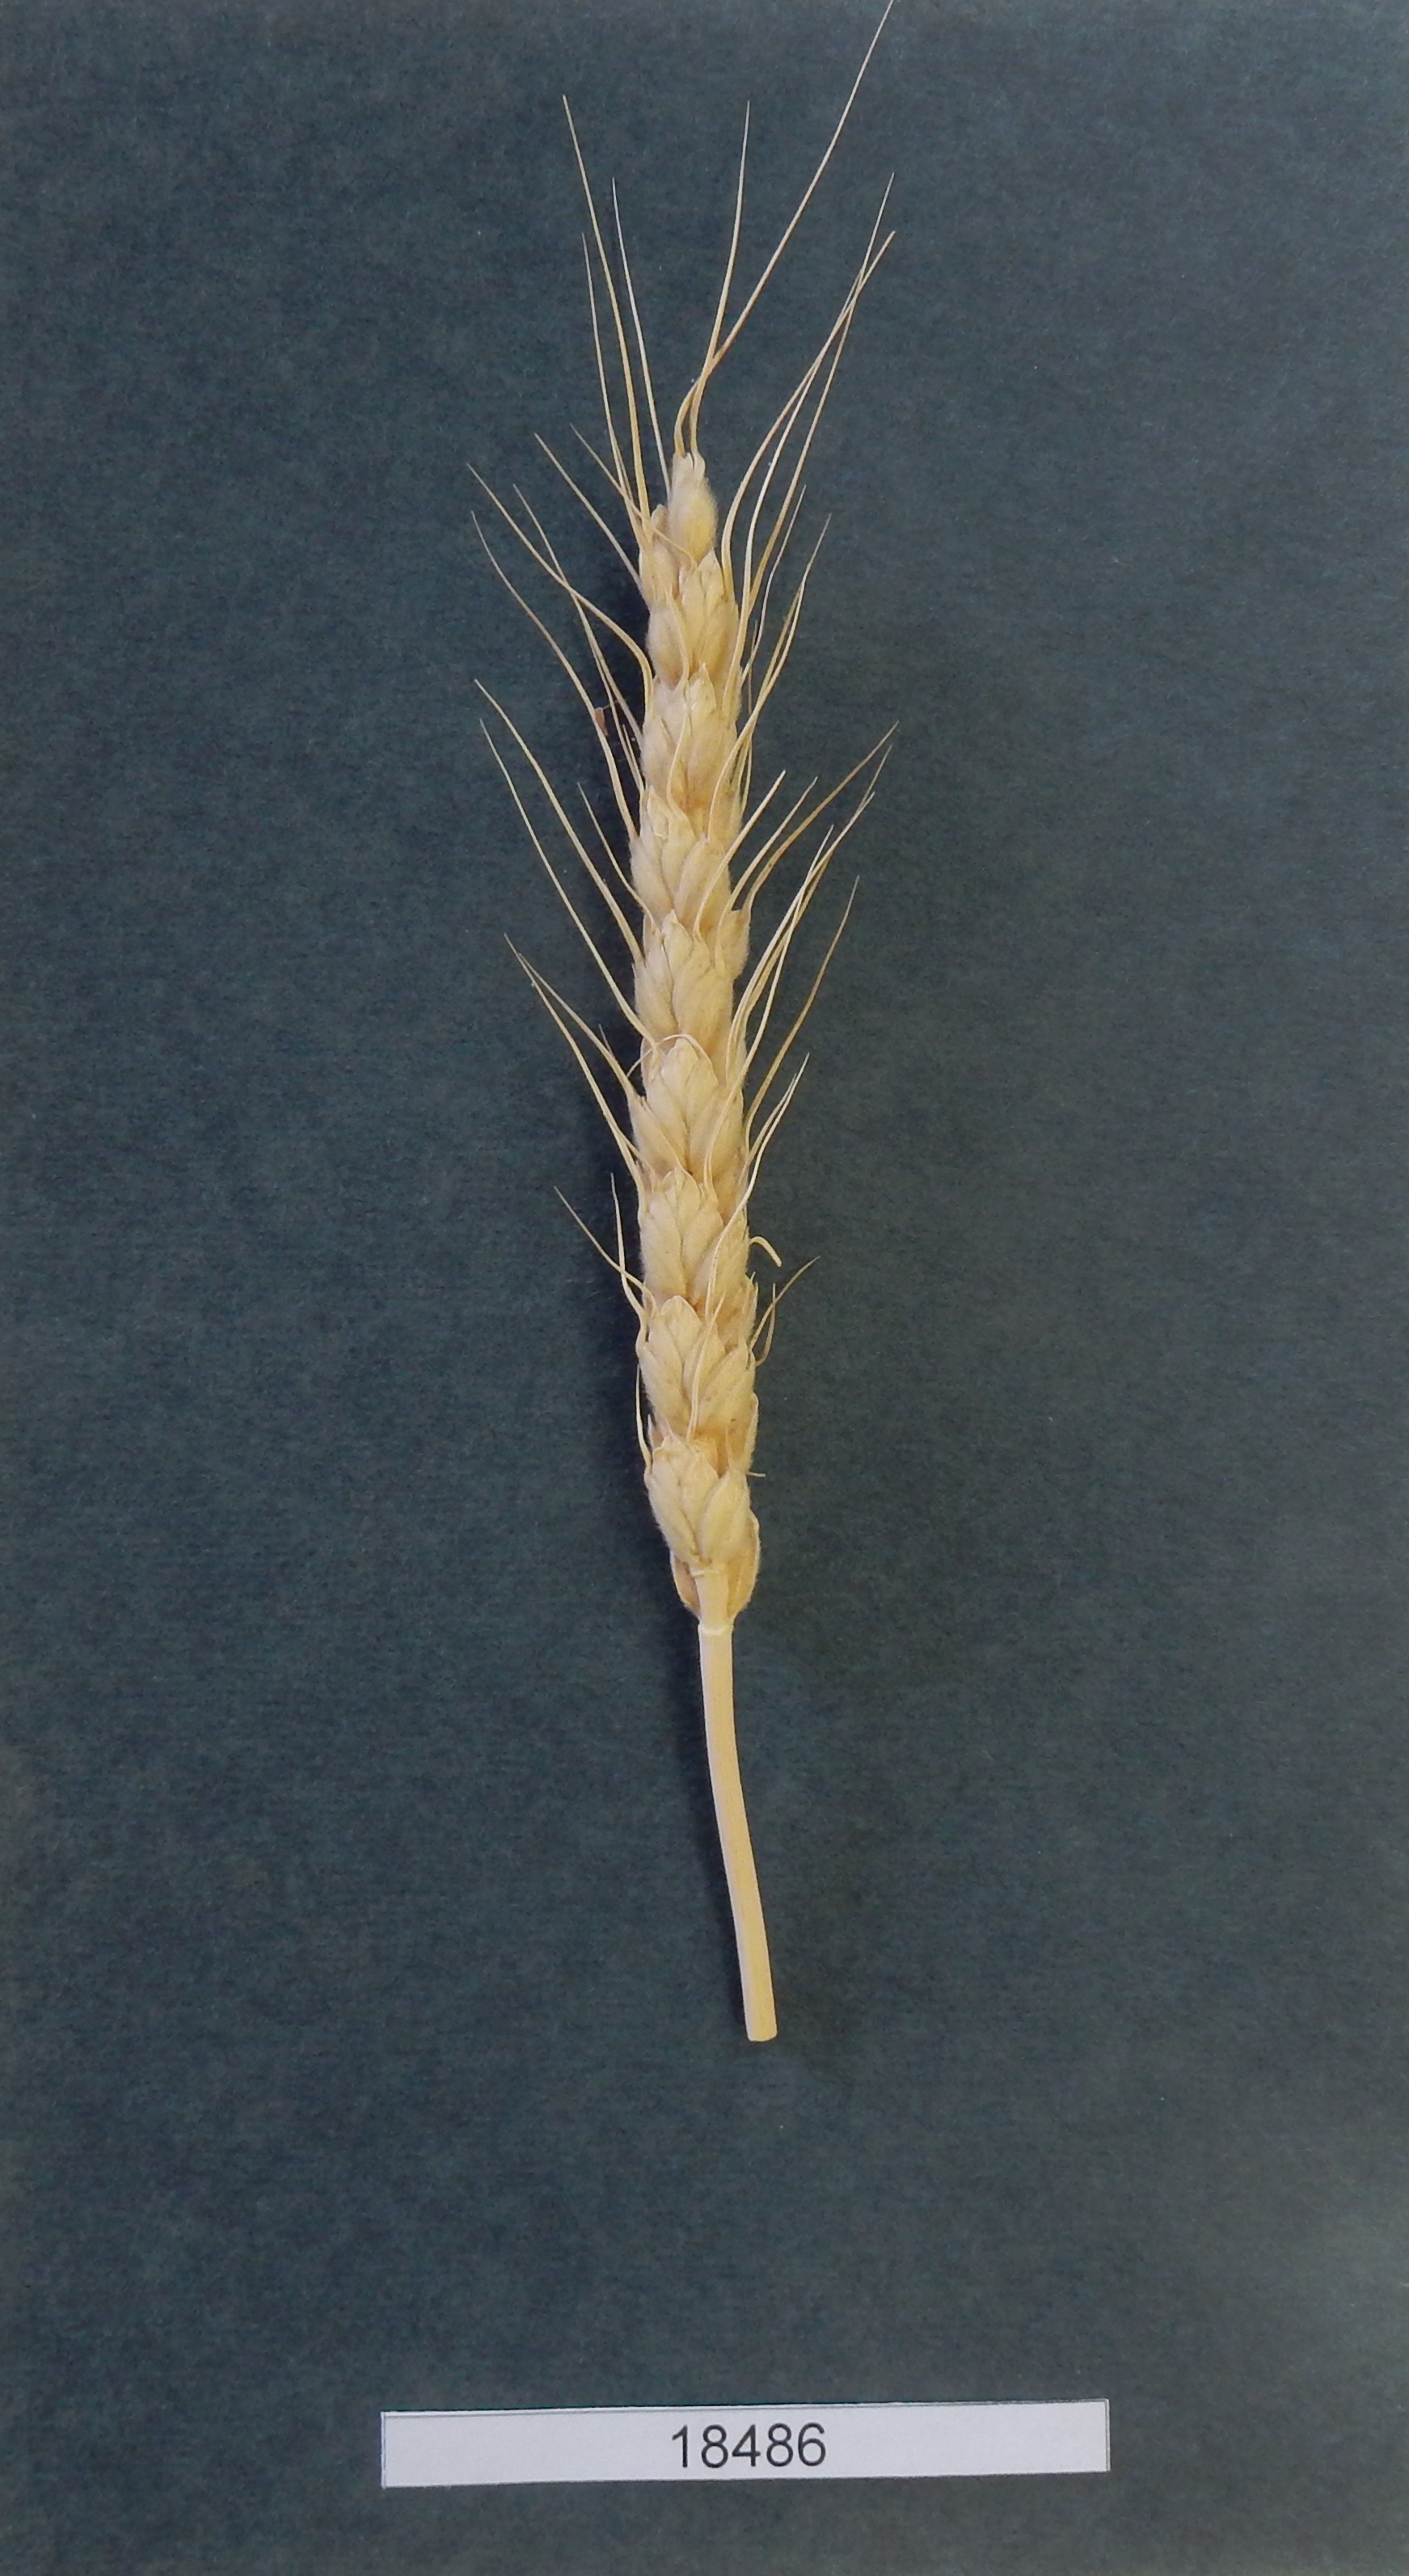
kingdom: Plantae
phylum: Tracheophyta
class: Liliopsida
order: Poales
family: Poaceae
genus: Triticum
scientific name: Triticum
